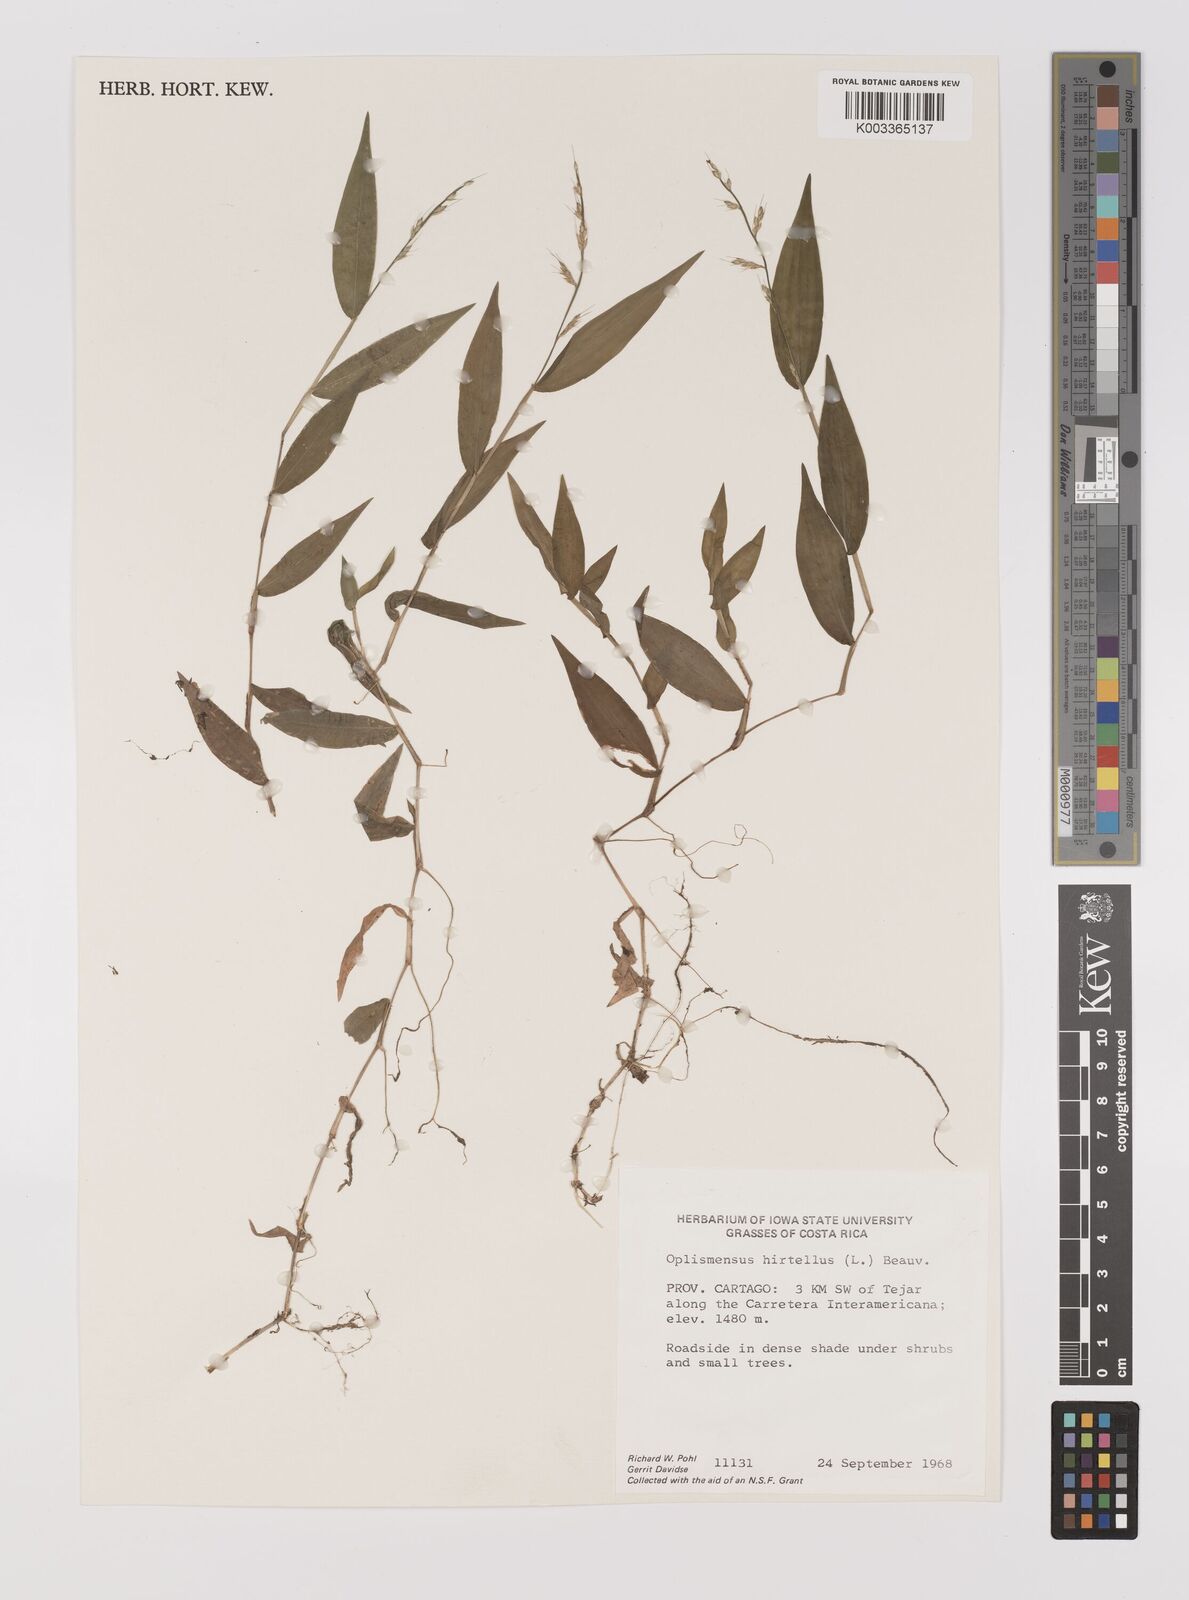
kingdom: Plantae
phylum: Tracheophyta
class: Liliopsida
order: Poales
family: Poaceae
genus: Oplismenus
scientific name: Oplismenus hirtellus
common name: Basketgrass
